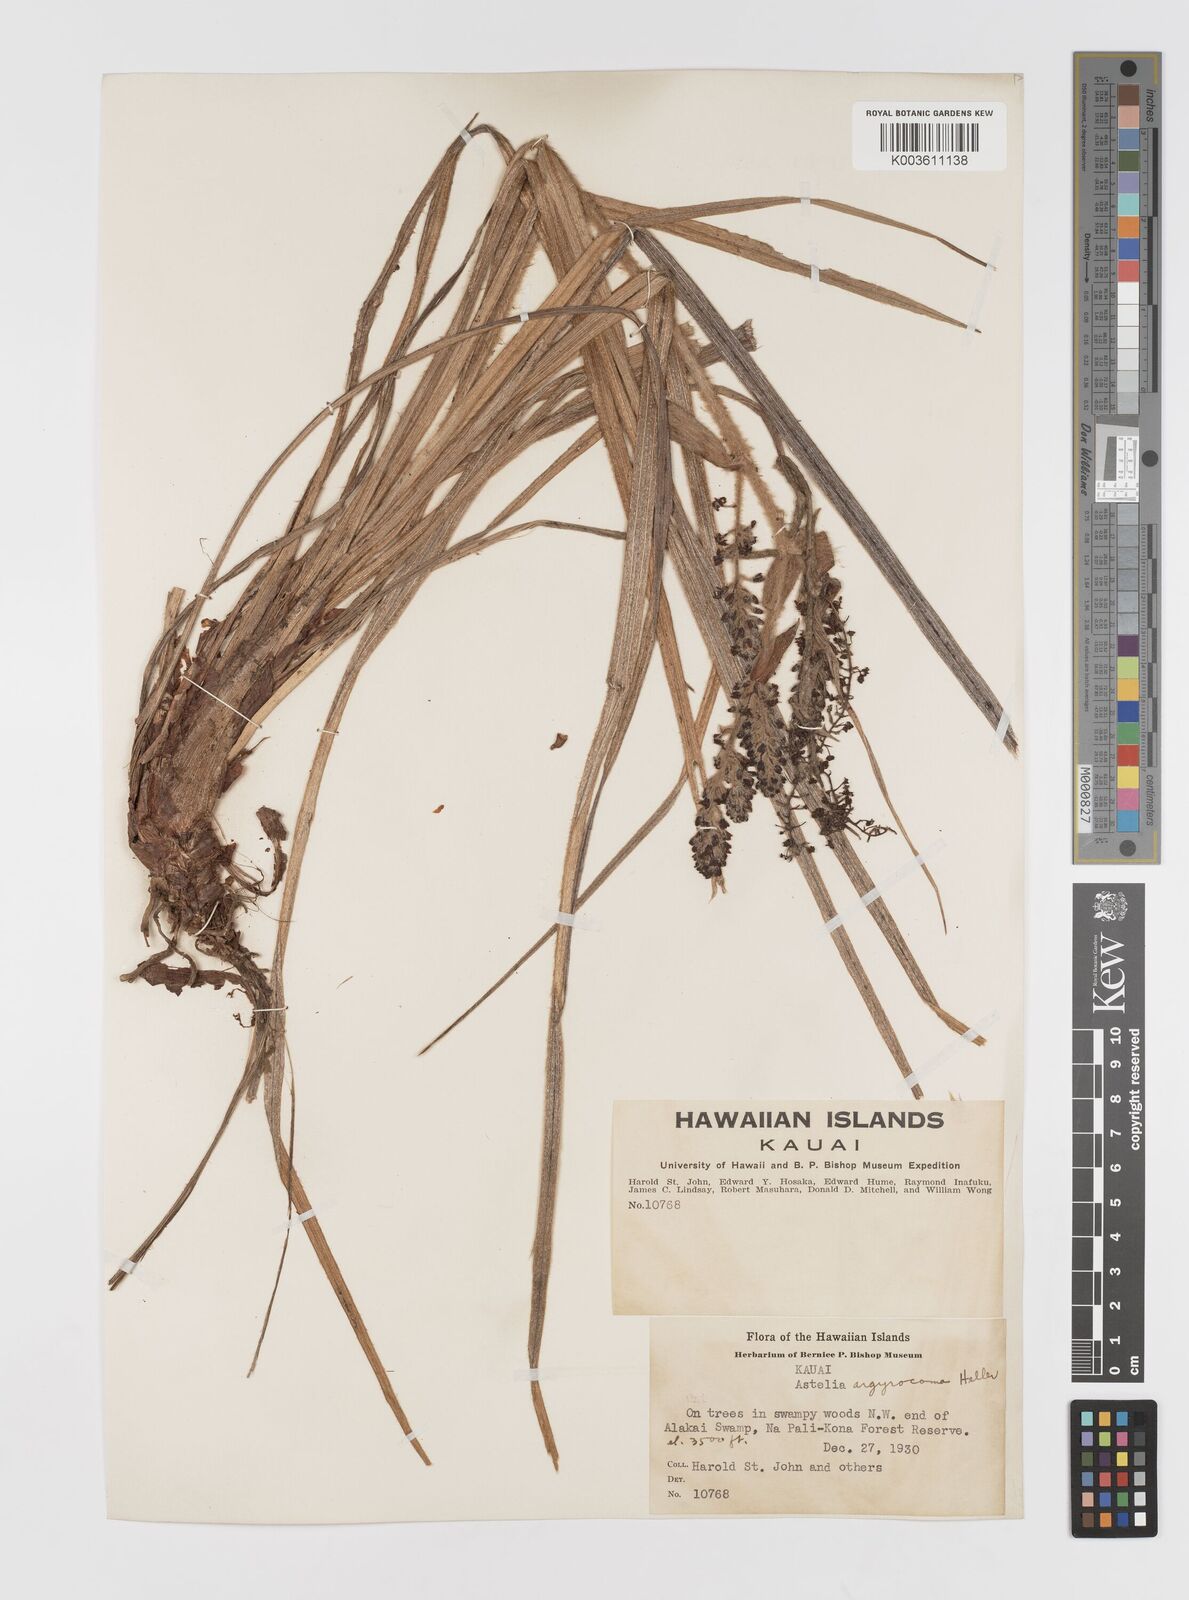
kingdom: Plantae
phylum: Tracheophyta
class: Liliopsida
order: Asparagales
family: Asteliaceae
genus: Astelia
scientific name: Astelia argyrocoma
